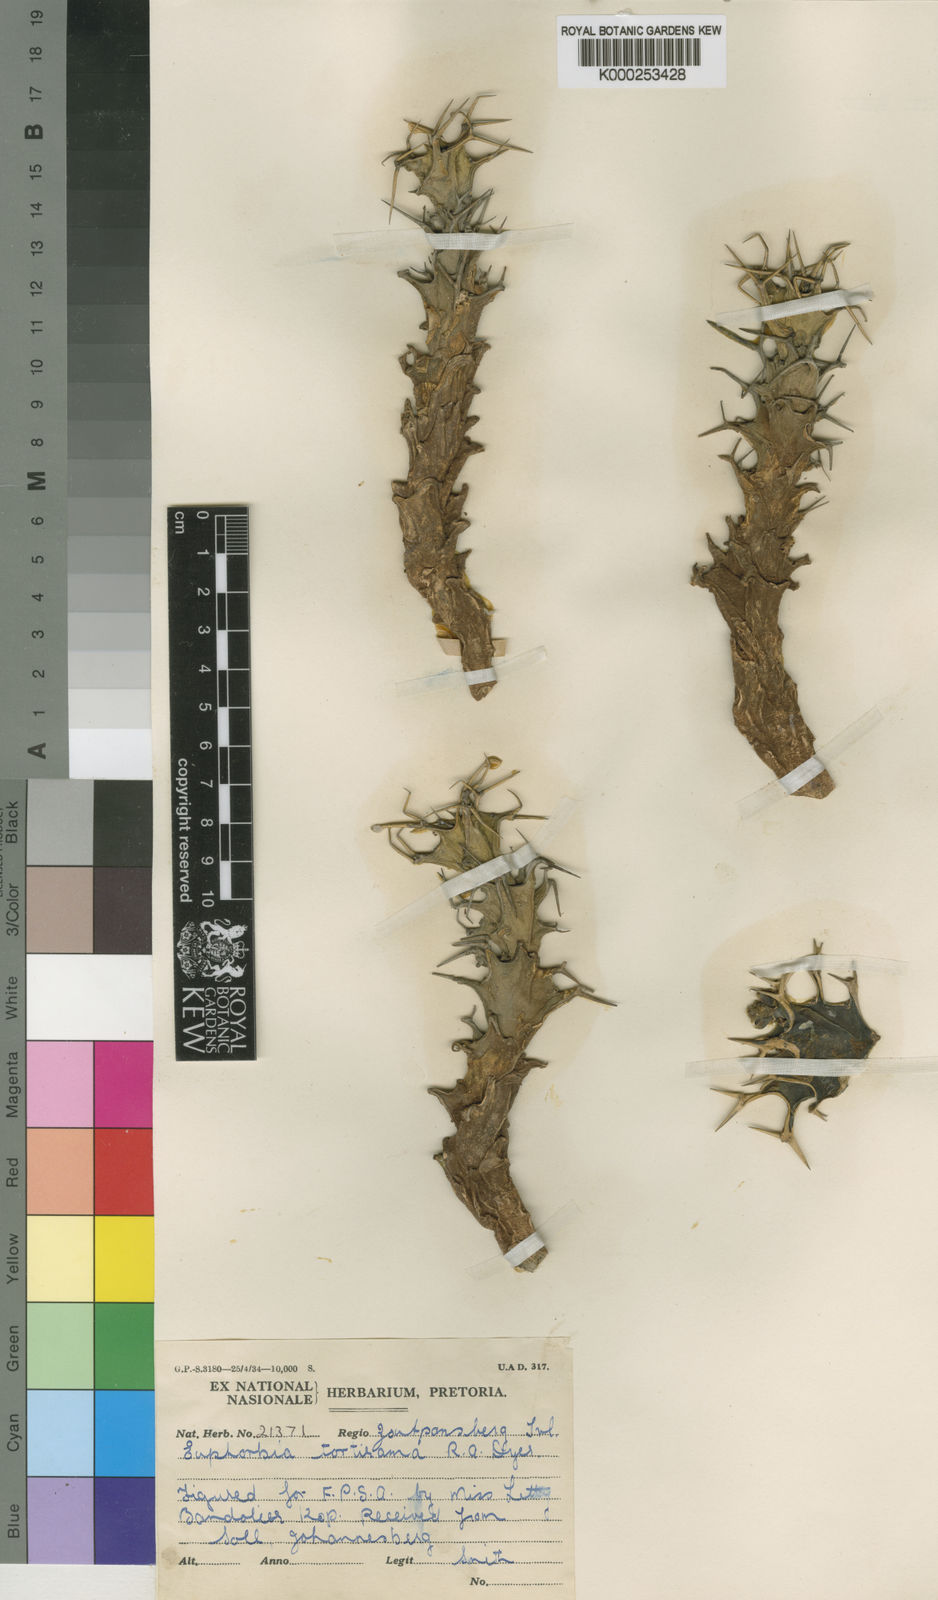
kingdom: Plantae
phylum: Tracheophyta
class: Magnoliopsida
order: Malpighiales
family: Euphorbiaceae
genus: Euphorbia
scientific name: Euphorbia tortirama
